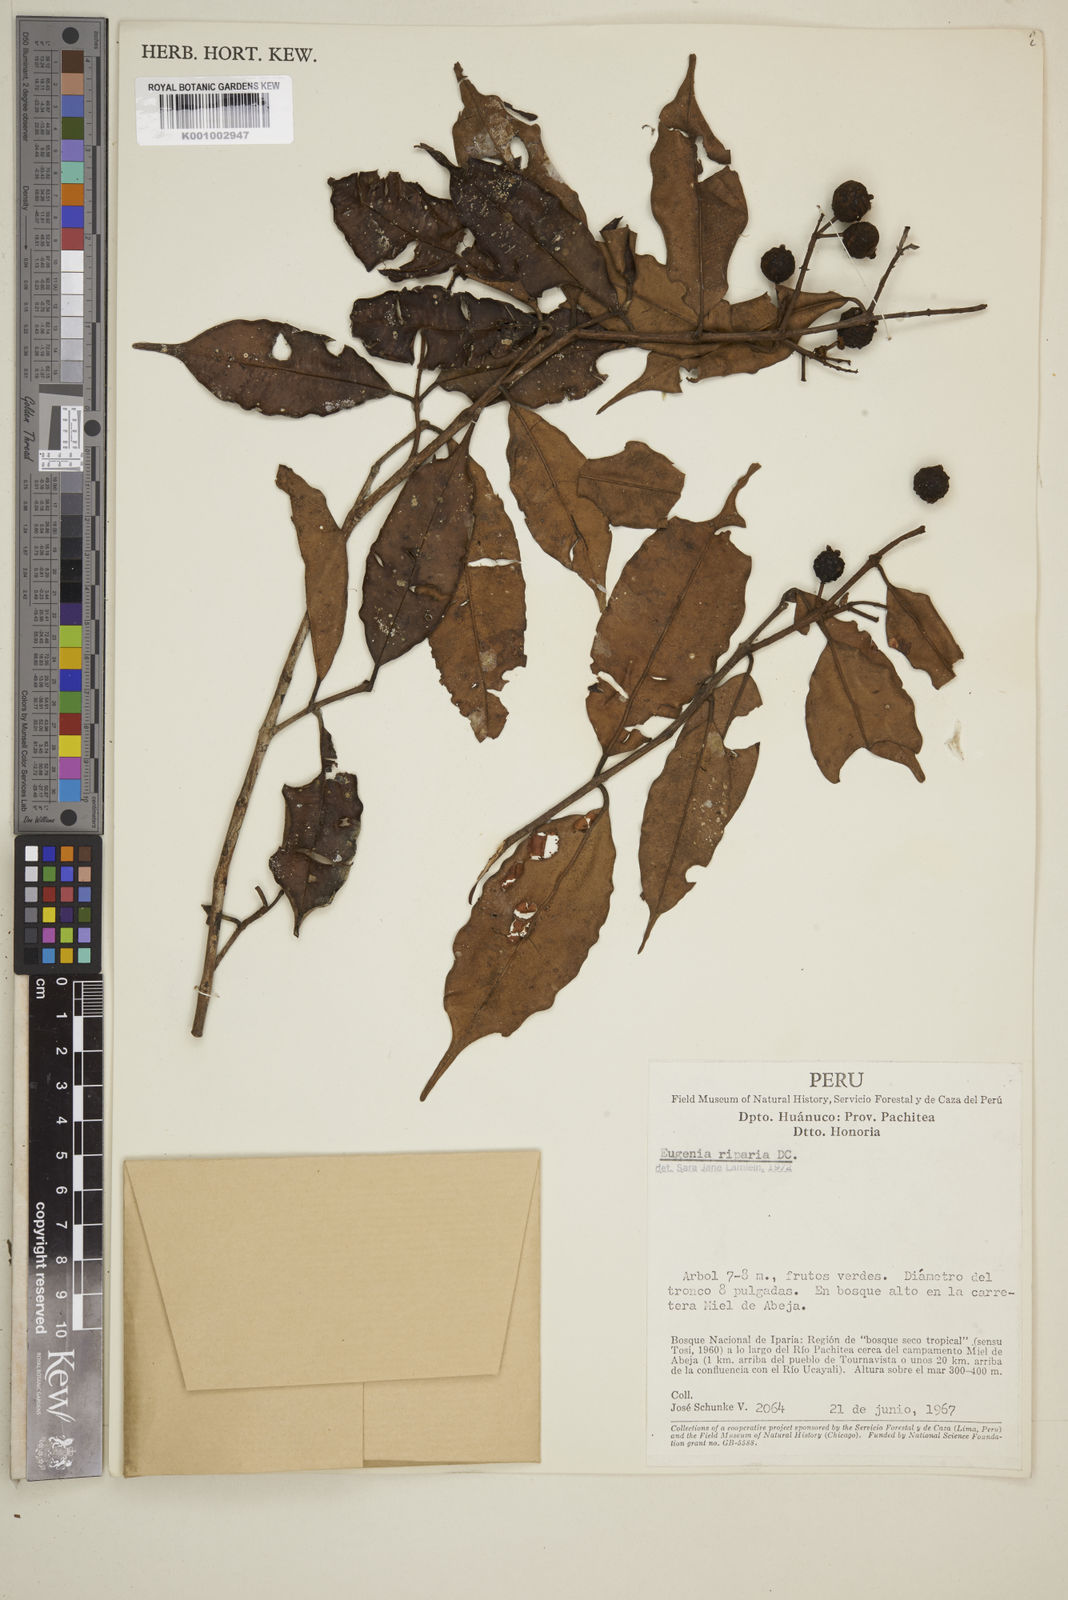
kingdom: Plantae
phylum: Tracheophyta
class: Magnoliopsida
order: Myrtales
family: Myrtaceae
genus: Eugenia
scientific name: Eugenia muricata
